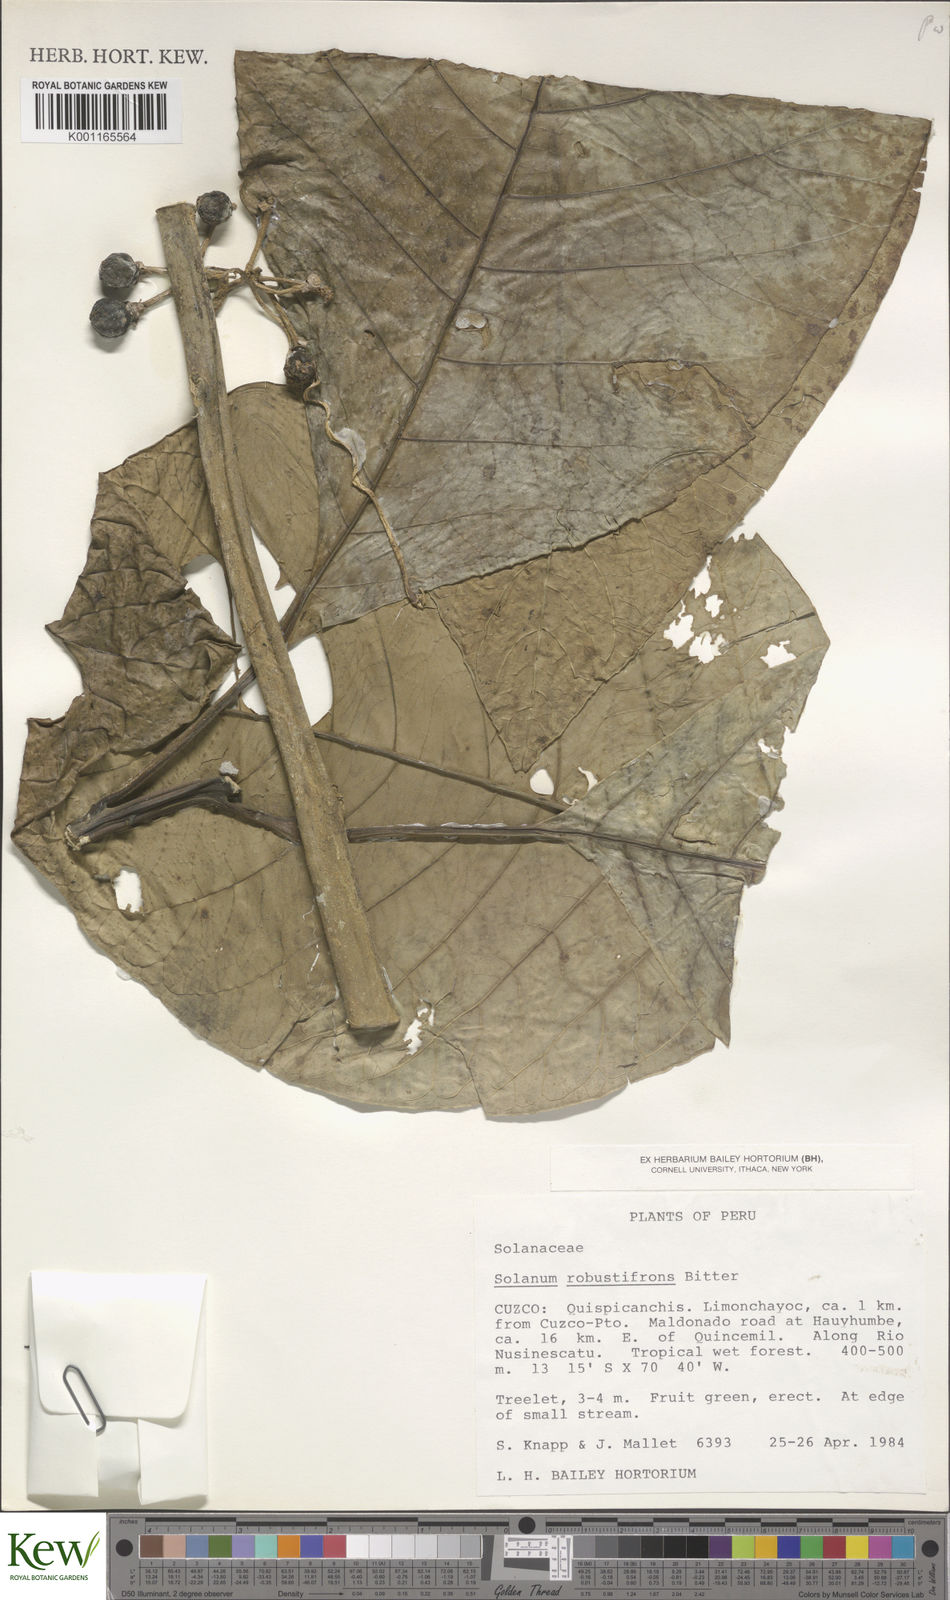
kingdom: Plantae
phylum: Tracheophyta
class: Magnoliopsida
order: Solanales
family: Solanaceae
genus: Solanum
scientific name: Solanum robustifrons
